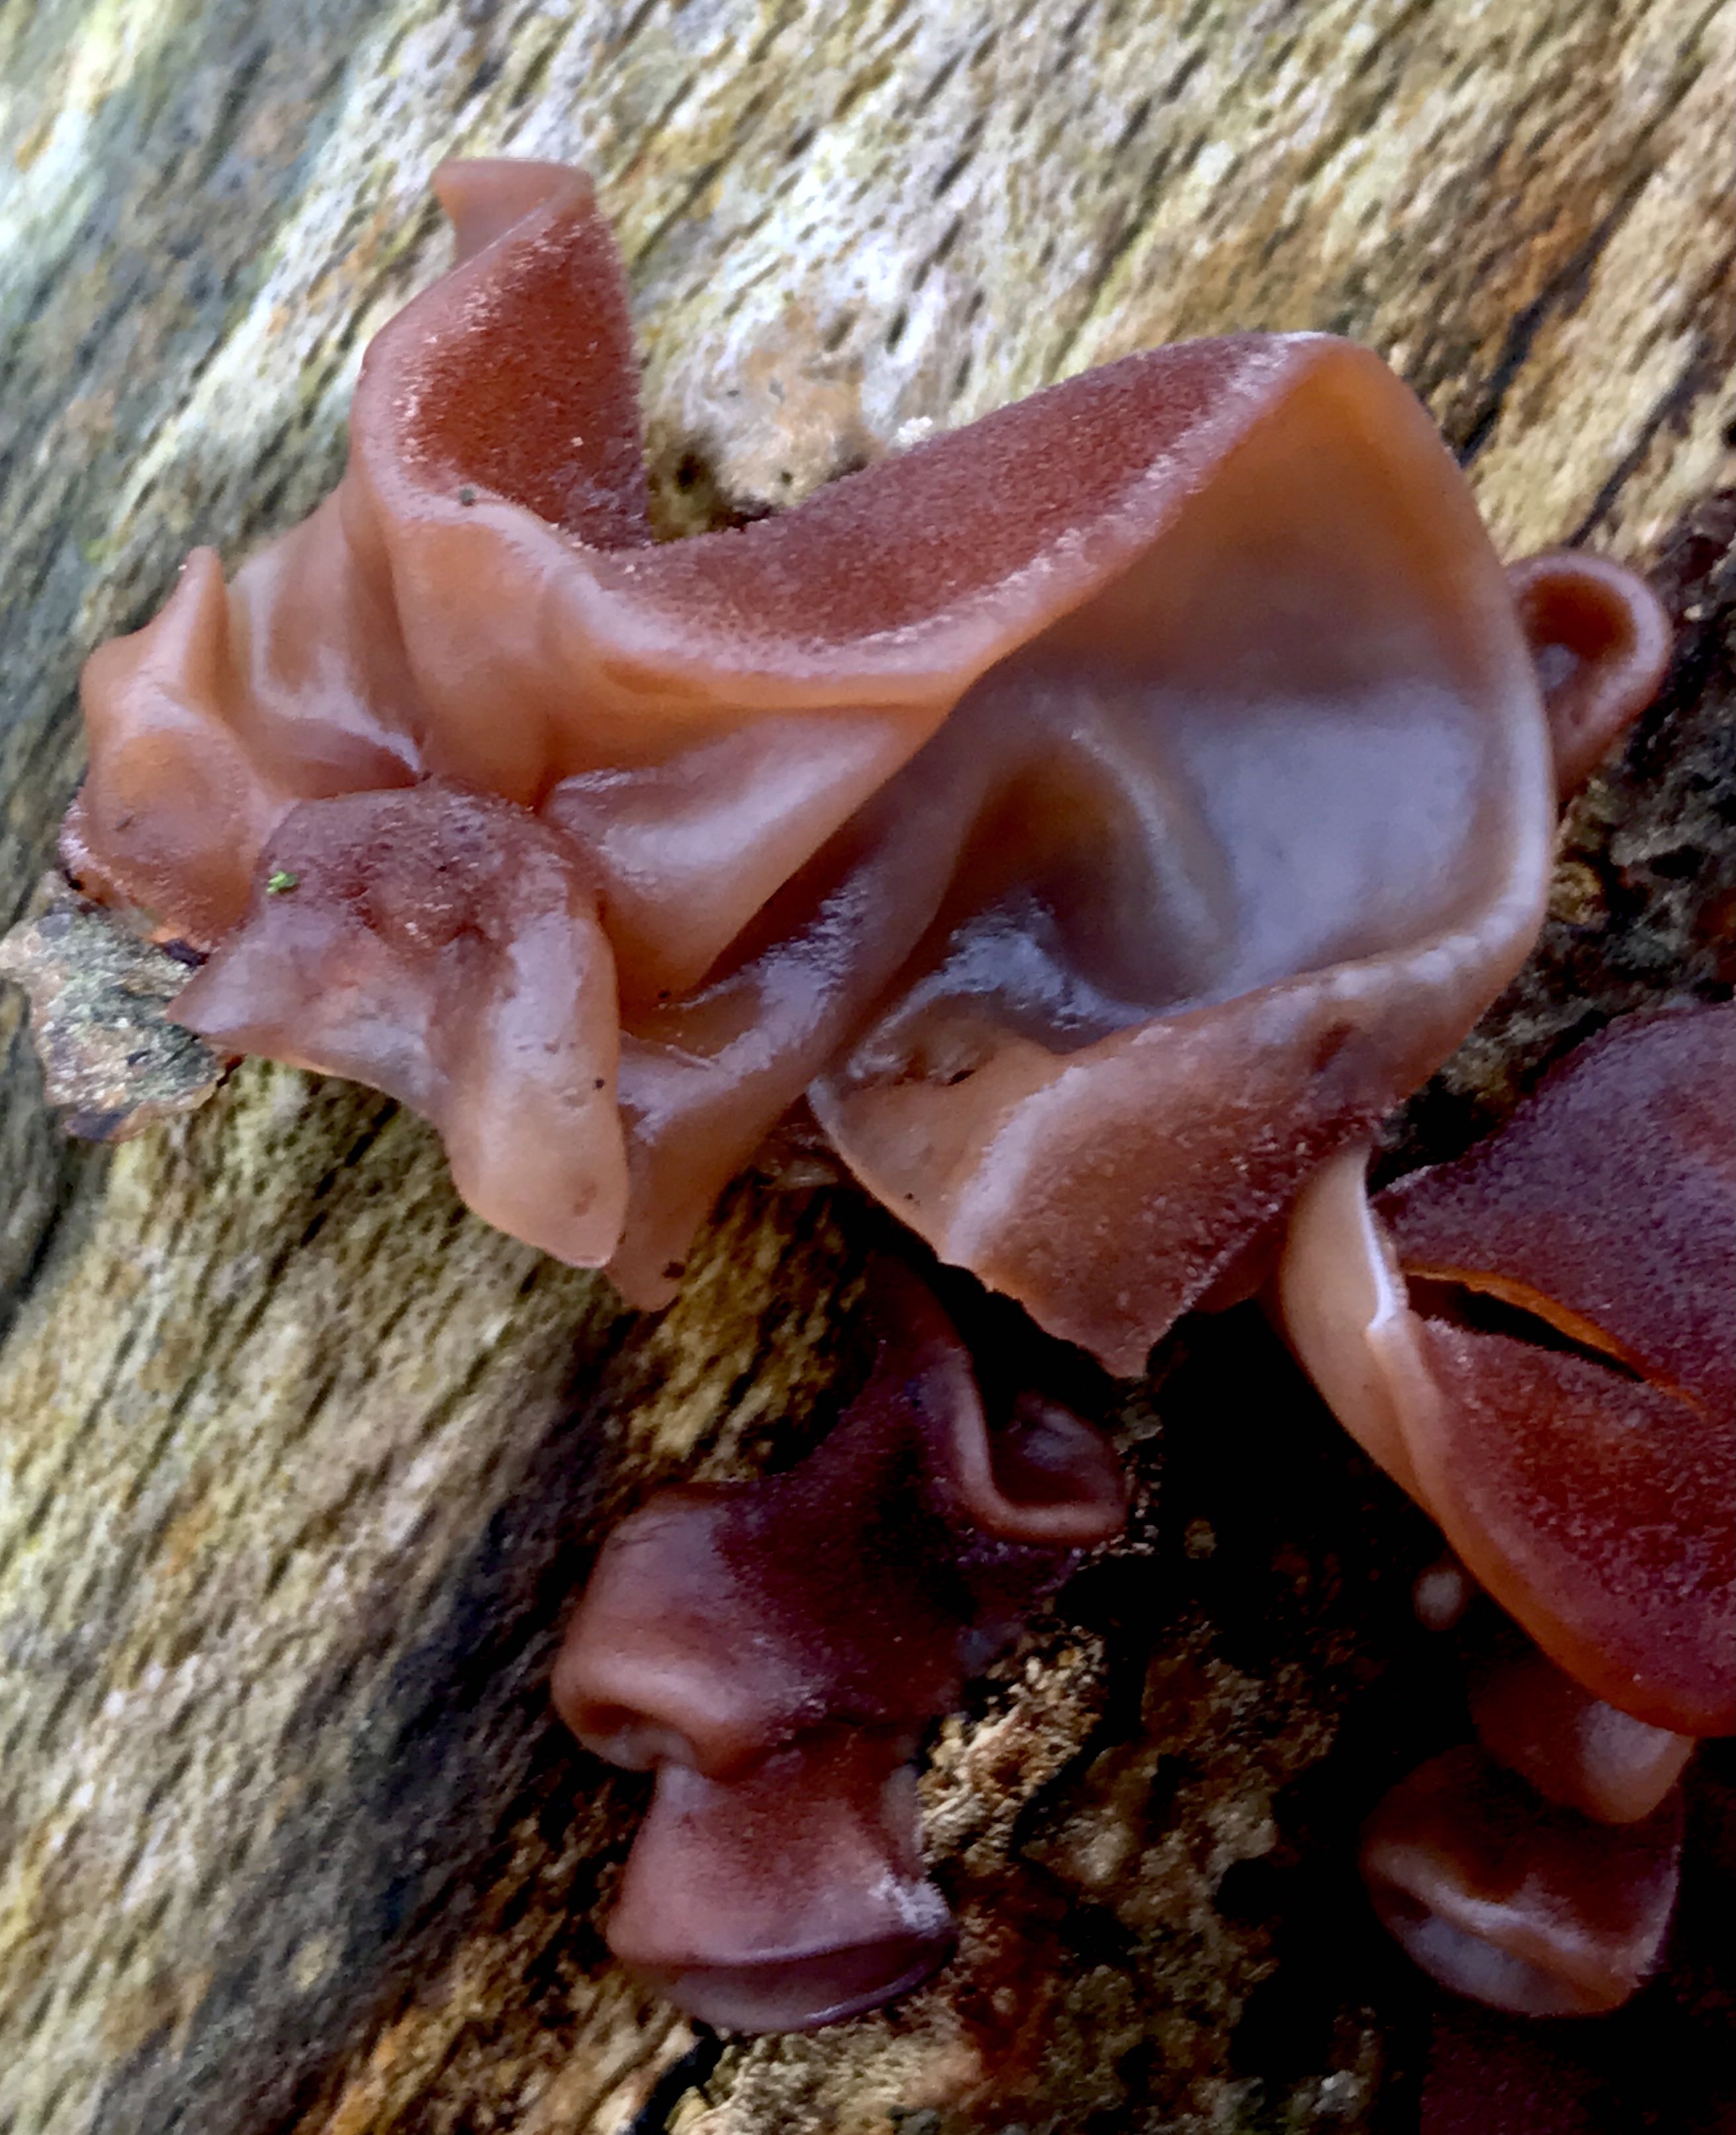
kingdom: Fungi
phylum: Basidiomycota
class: Agaricomycetes
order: Auriculariales
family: Auriculariaceae
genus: Auricularia
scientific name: Auricularia auricula-judae
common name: almindelig judasøre
